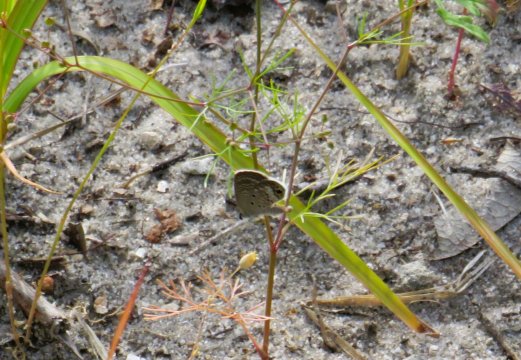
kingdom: Animalia
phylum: Arthropoda
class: Insecta
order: Lepidoptera
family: Lycaenidae
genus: Hemiargus
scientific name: Hemiargus ceraunus
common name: Ceraunus Blue
